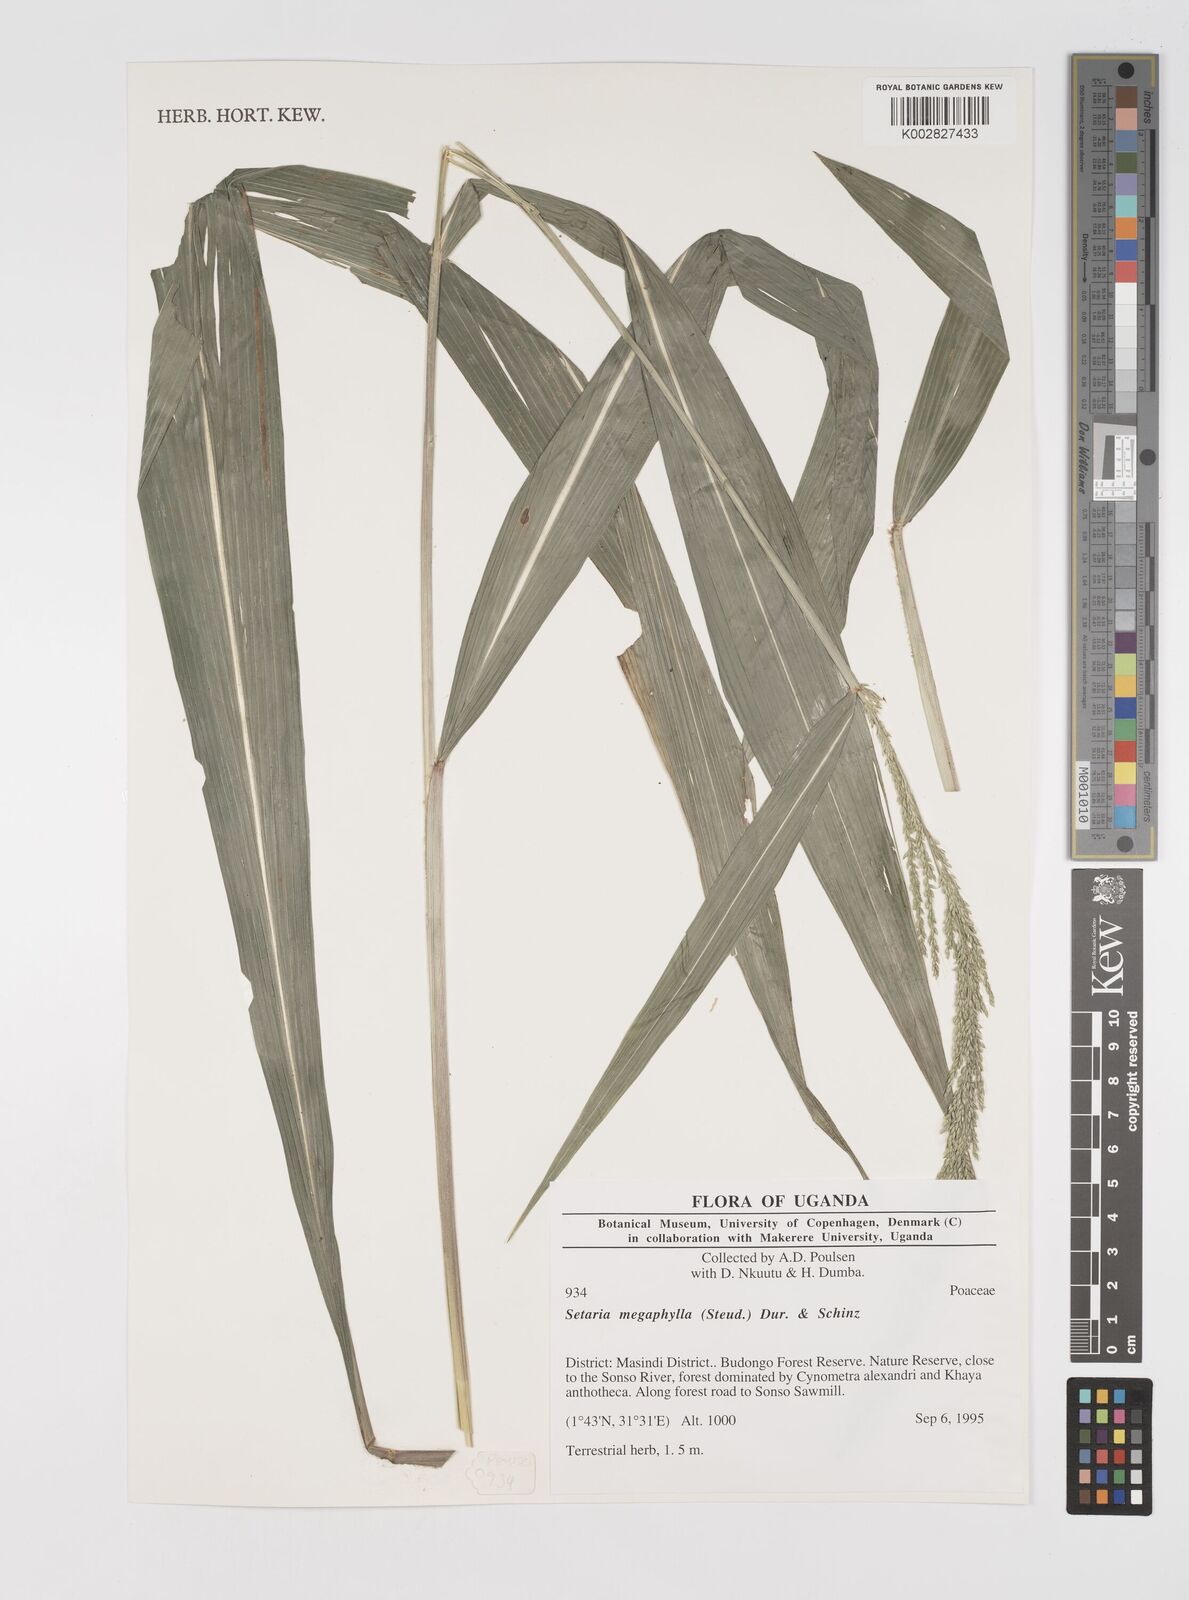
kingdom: Plantae
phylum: Tracheophyta
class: Liliopsida
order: Poales
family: Poaceae
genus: Setaria
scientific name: Setaria megaphylla
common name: Bigleaf bristlegrass
